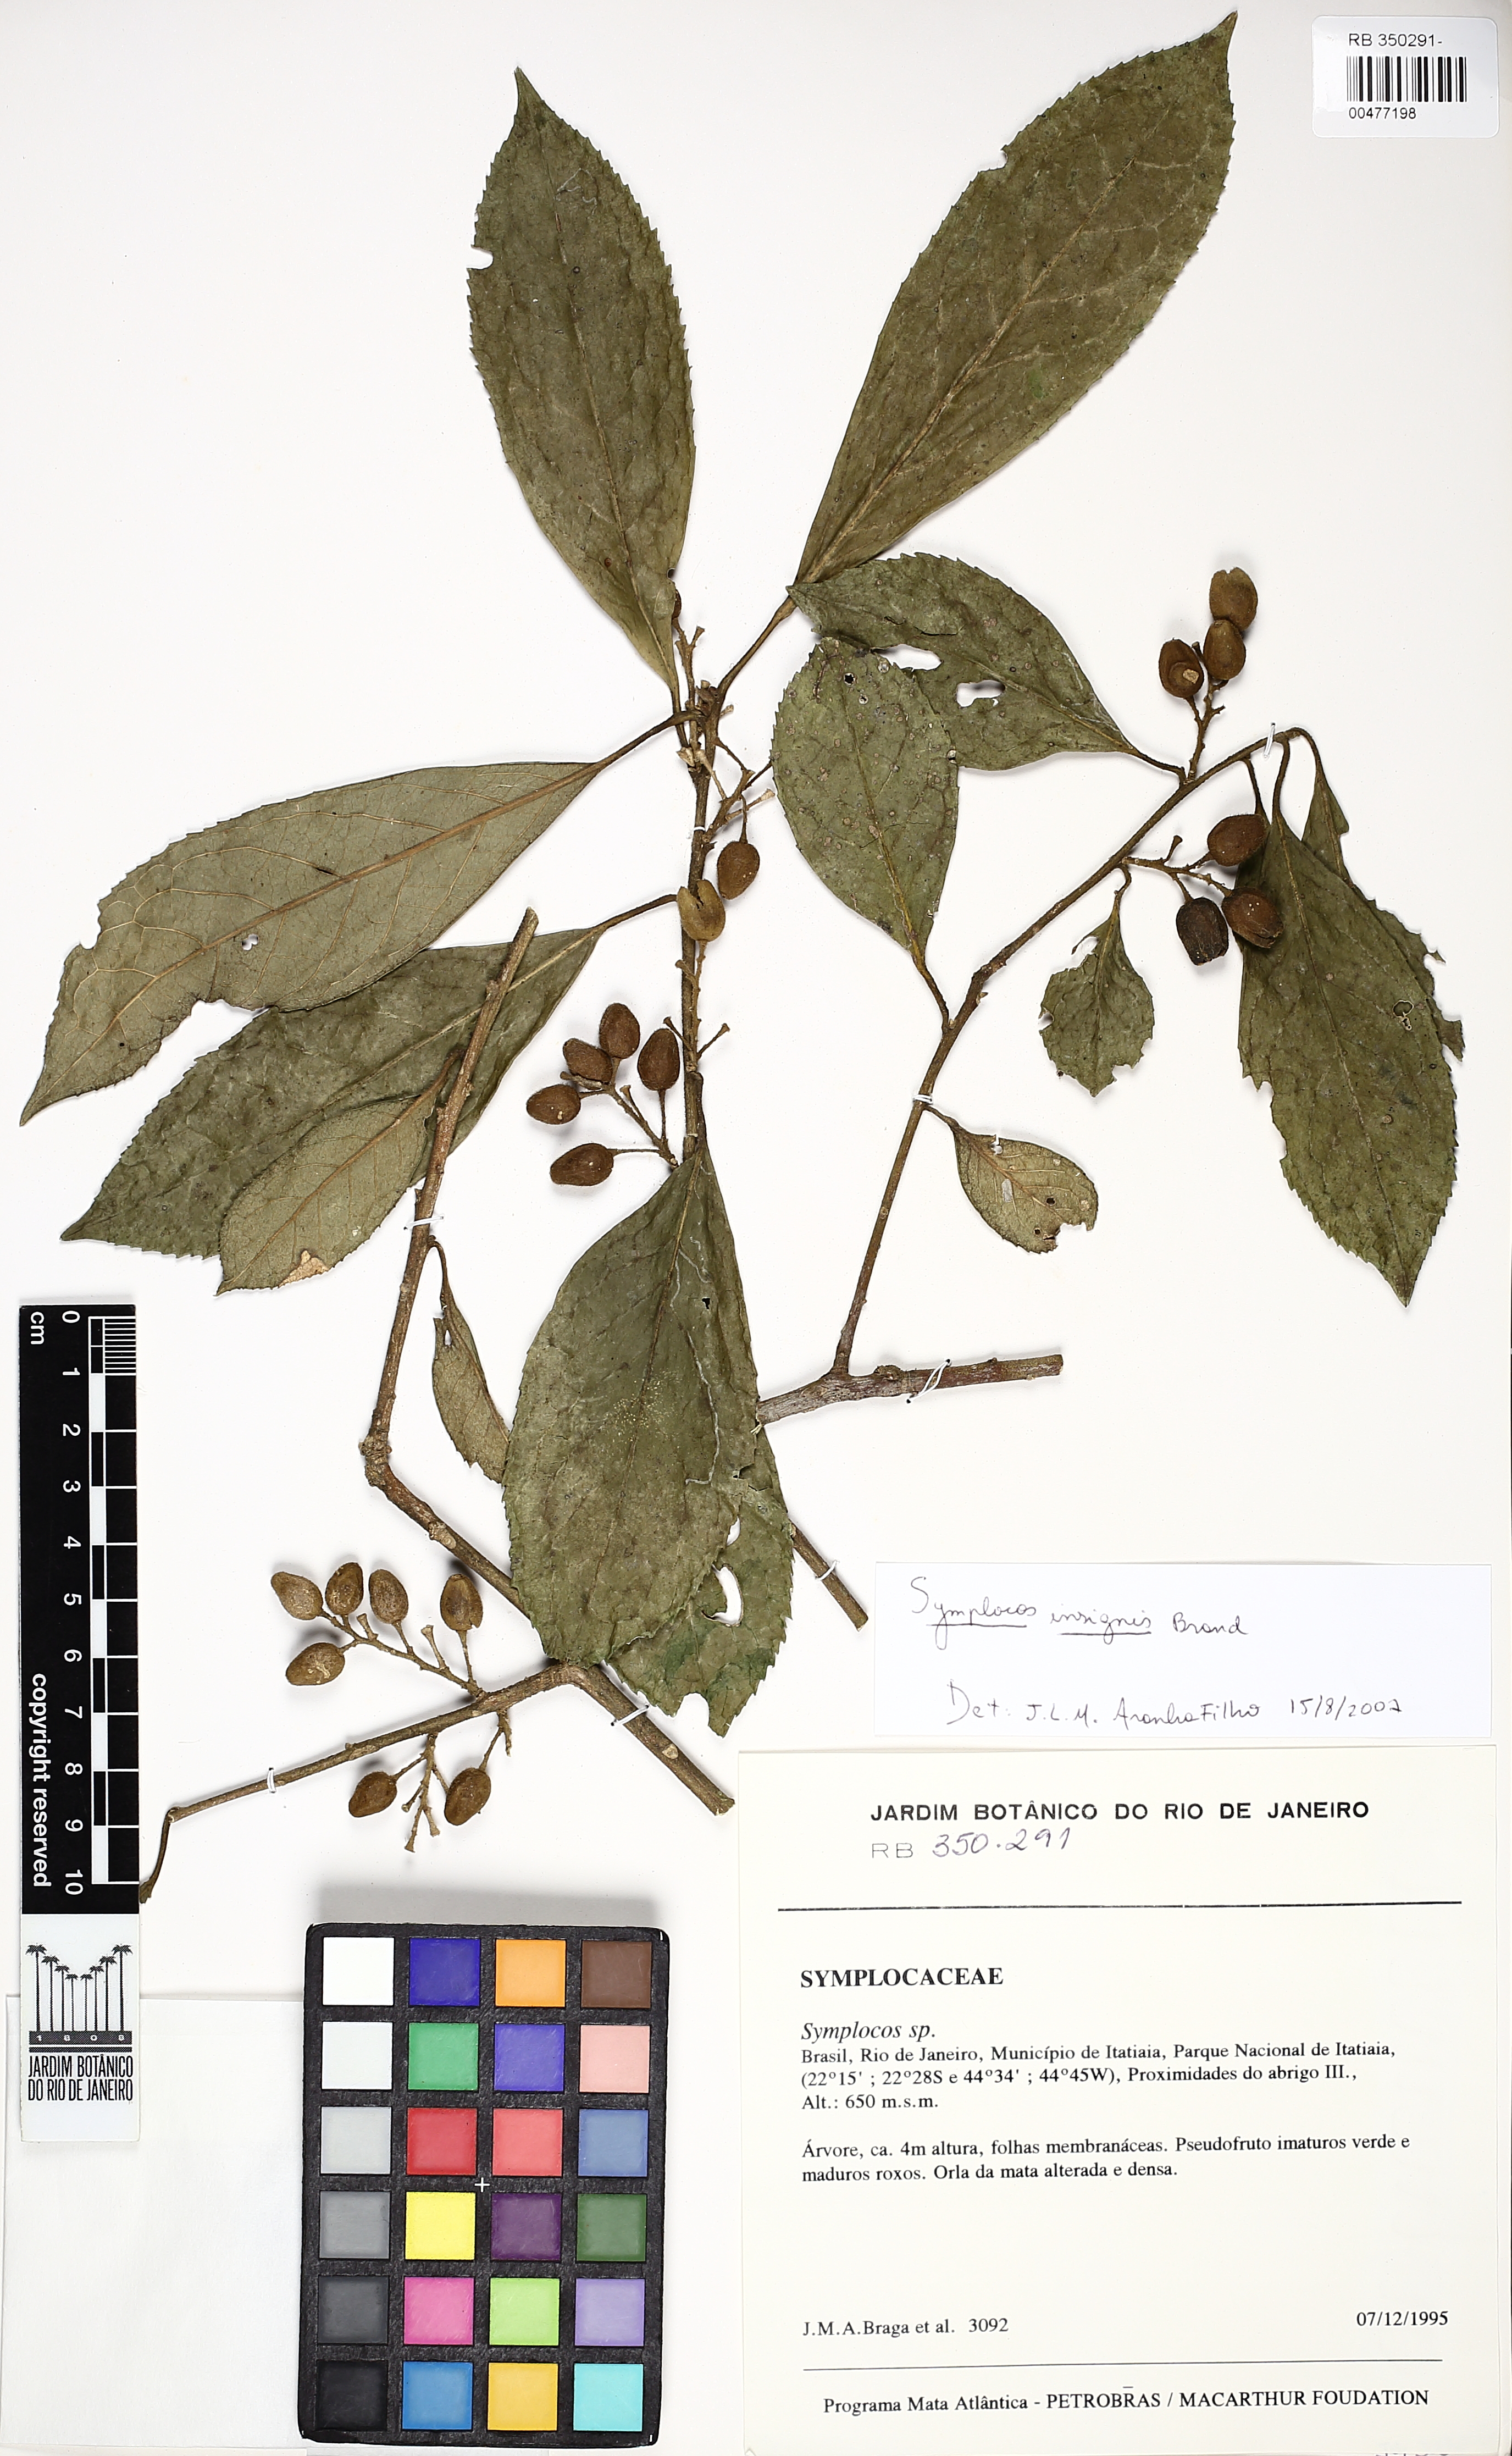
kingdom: Plantae
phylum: Tracheophyta
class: Magnoliopsida
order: Ericales
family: Symplocaceae
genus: Symplocos
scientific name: Symplocos insignis
